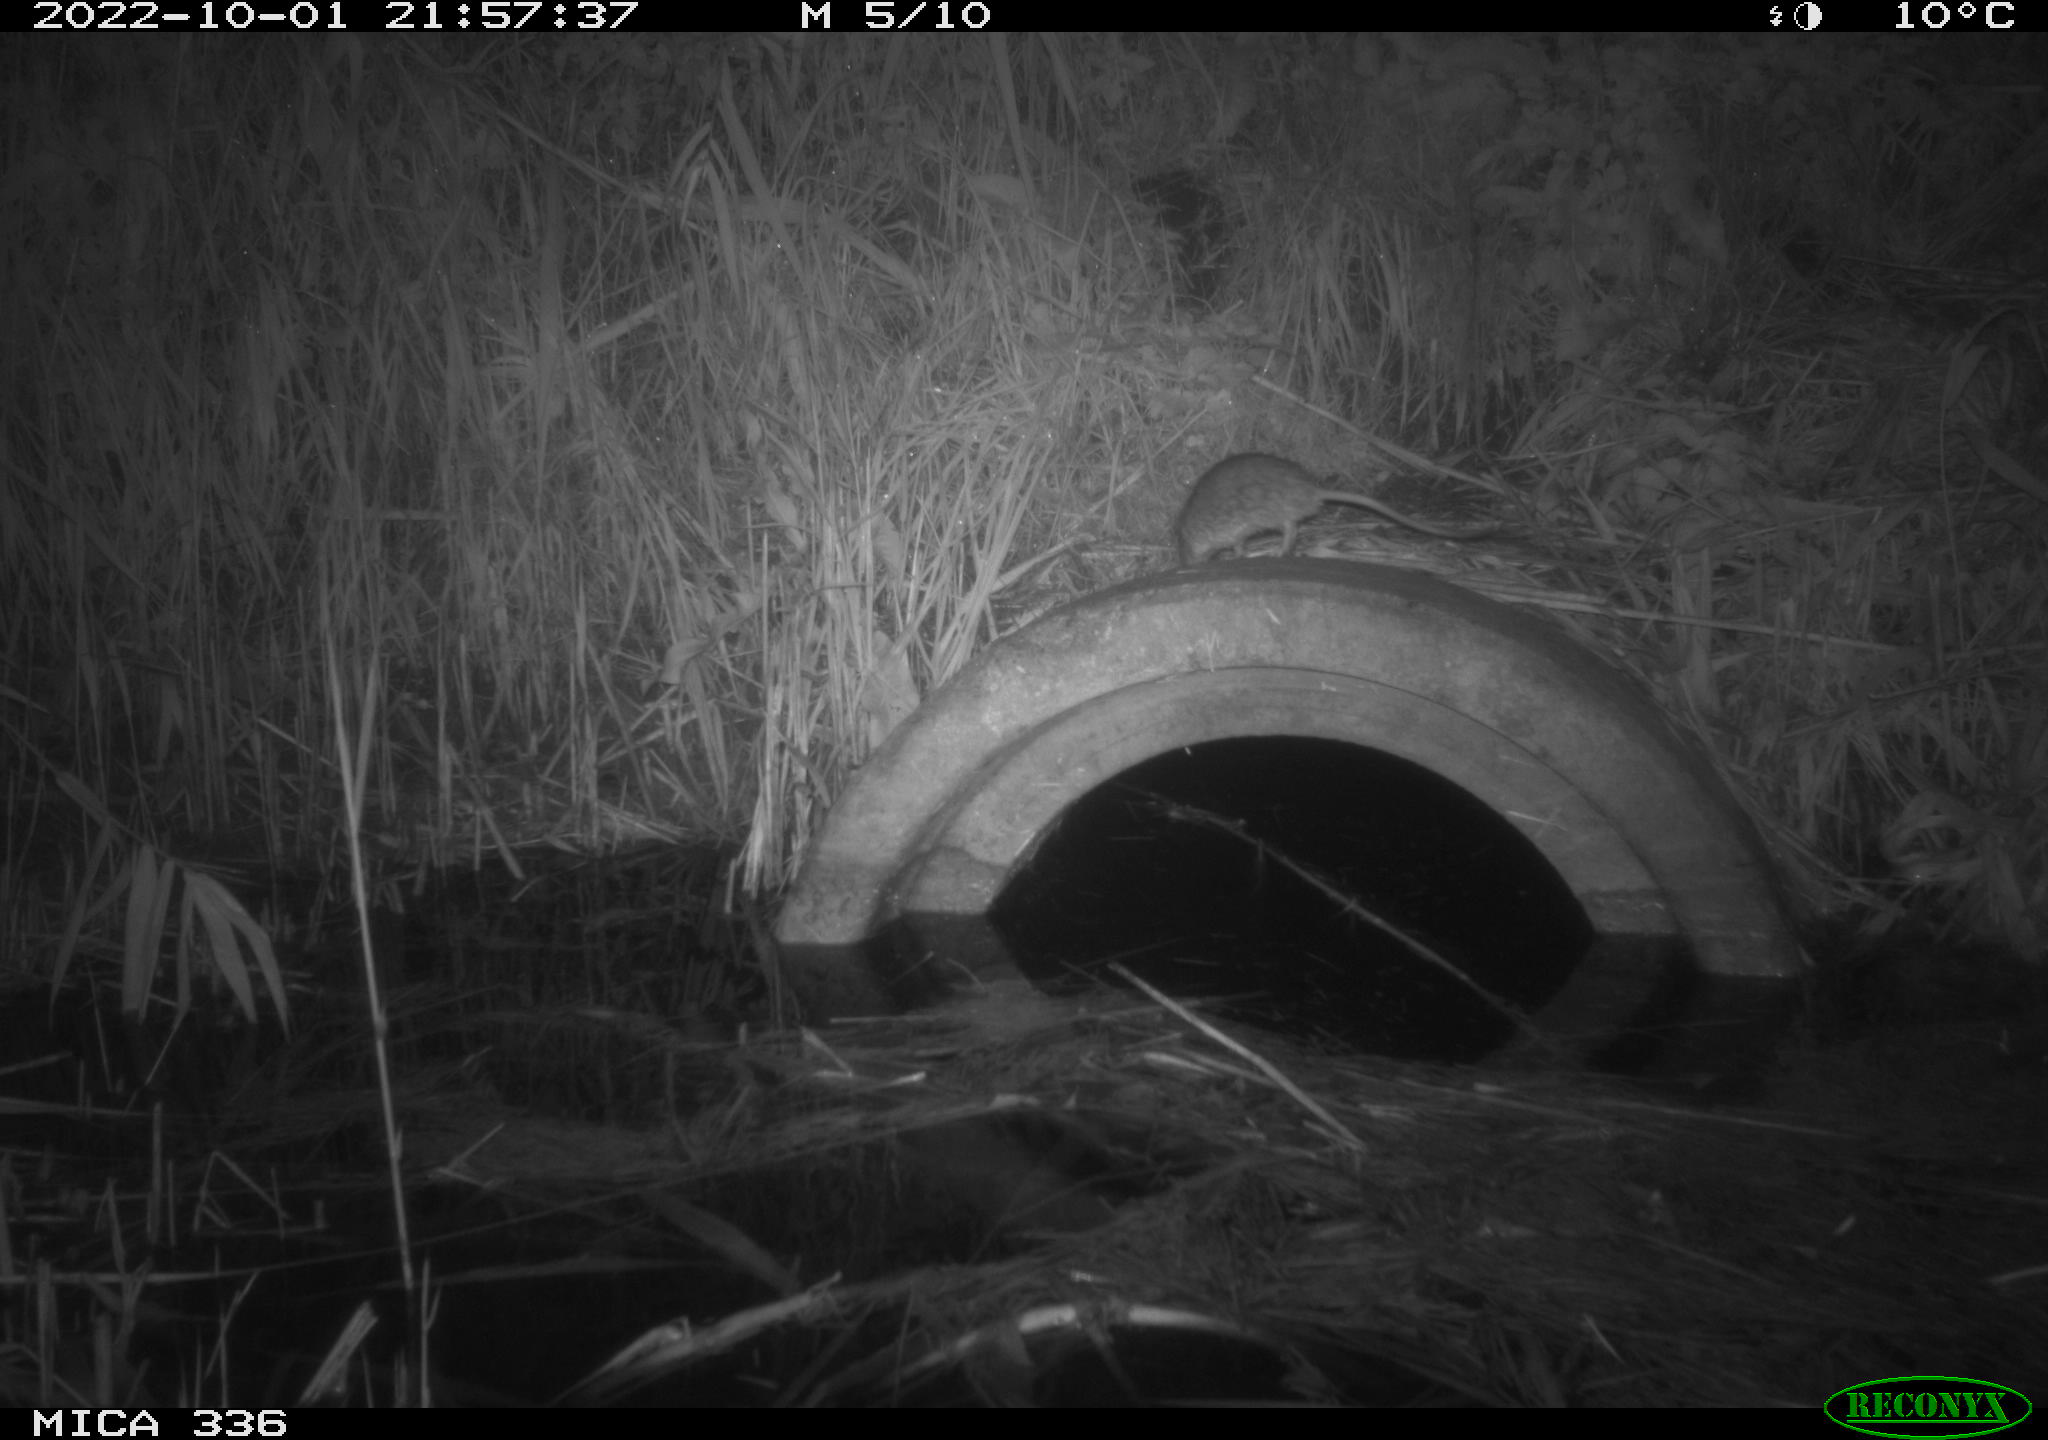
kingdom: Animalia
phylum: Chordata
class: Mammalia
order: Rodentia
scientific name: Rodentia
